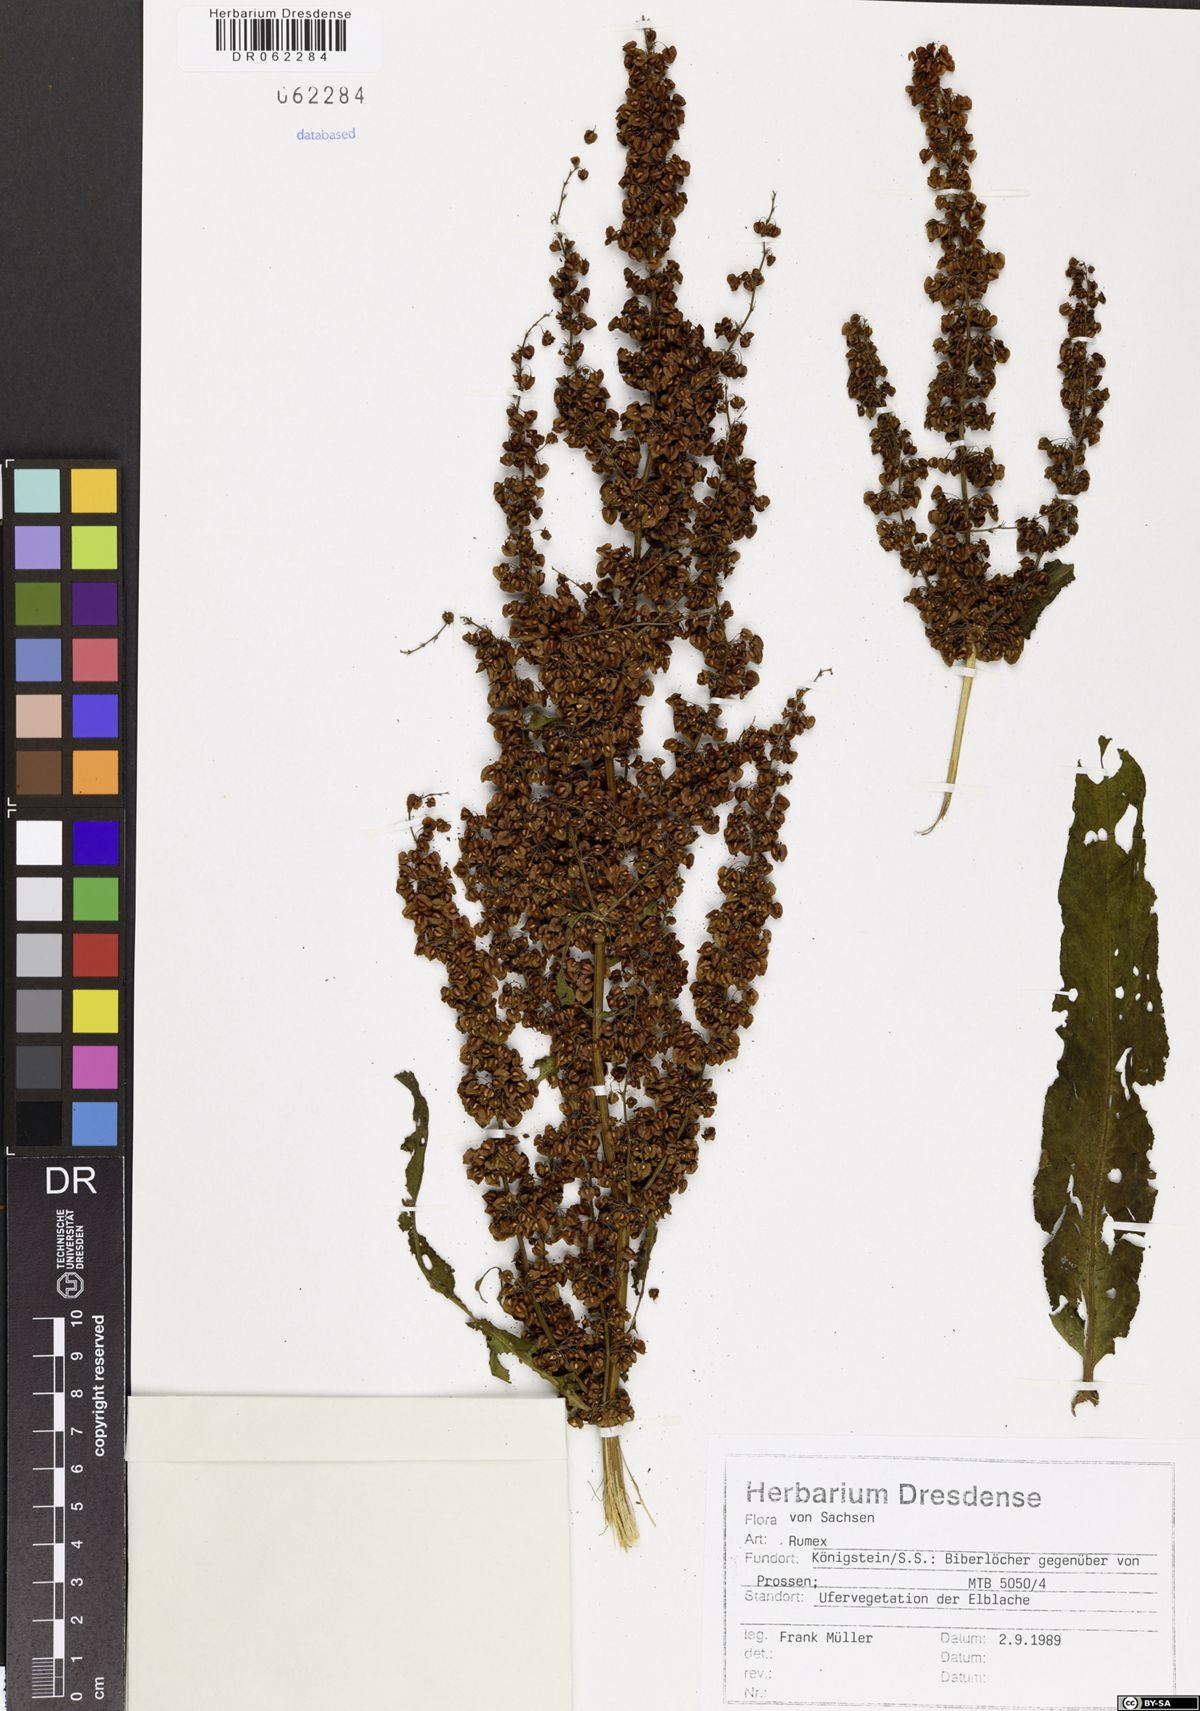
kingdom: Plantae
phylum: Tracheophyta
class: Magnoliopsida
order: Caryophyllales
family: Polygonaceae
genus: Rumex
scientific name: Rumex
